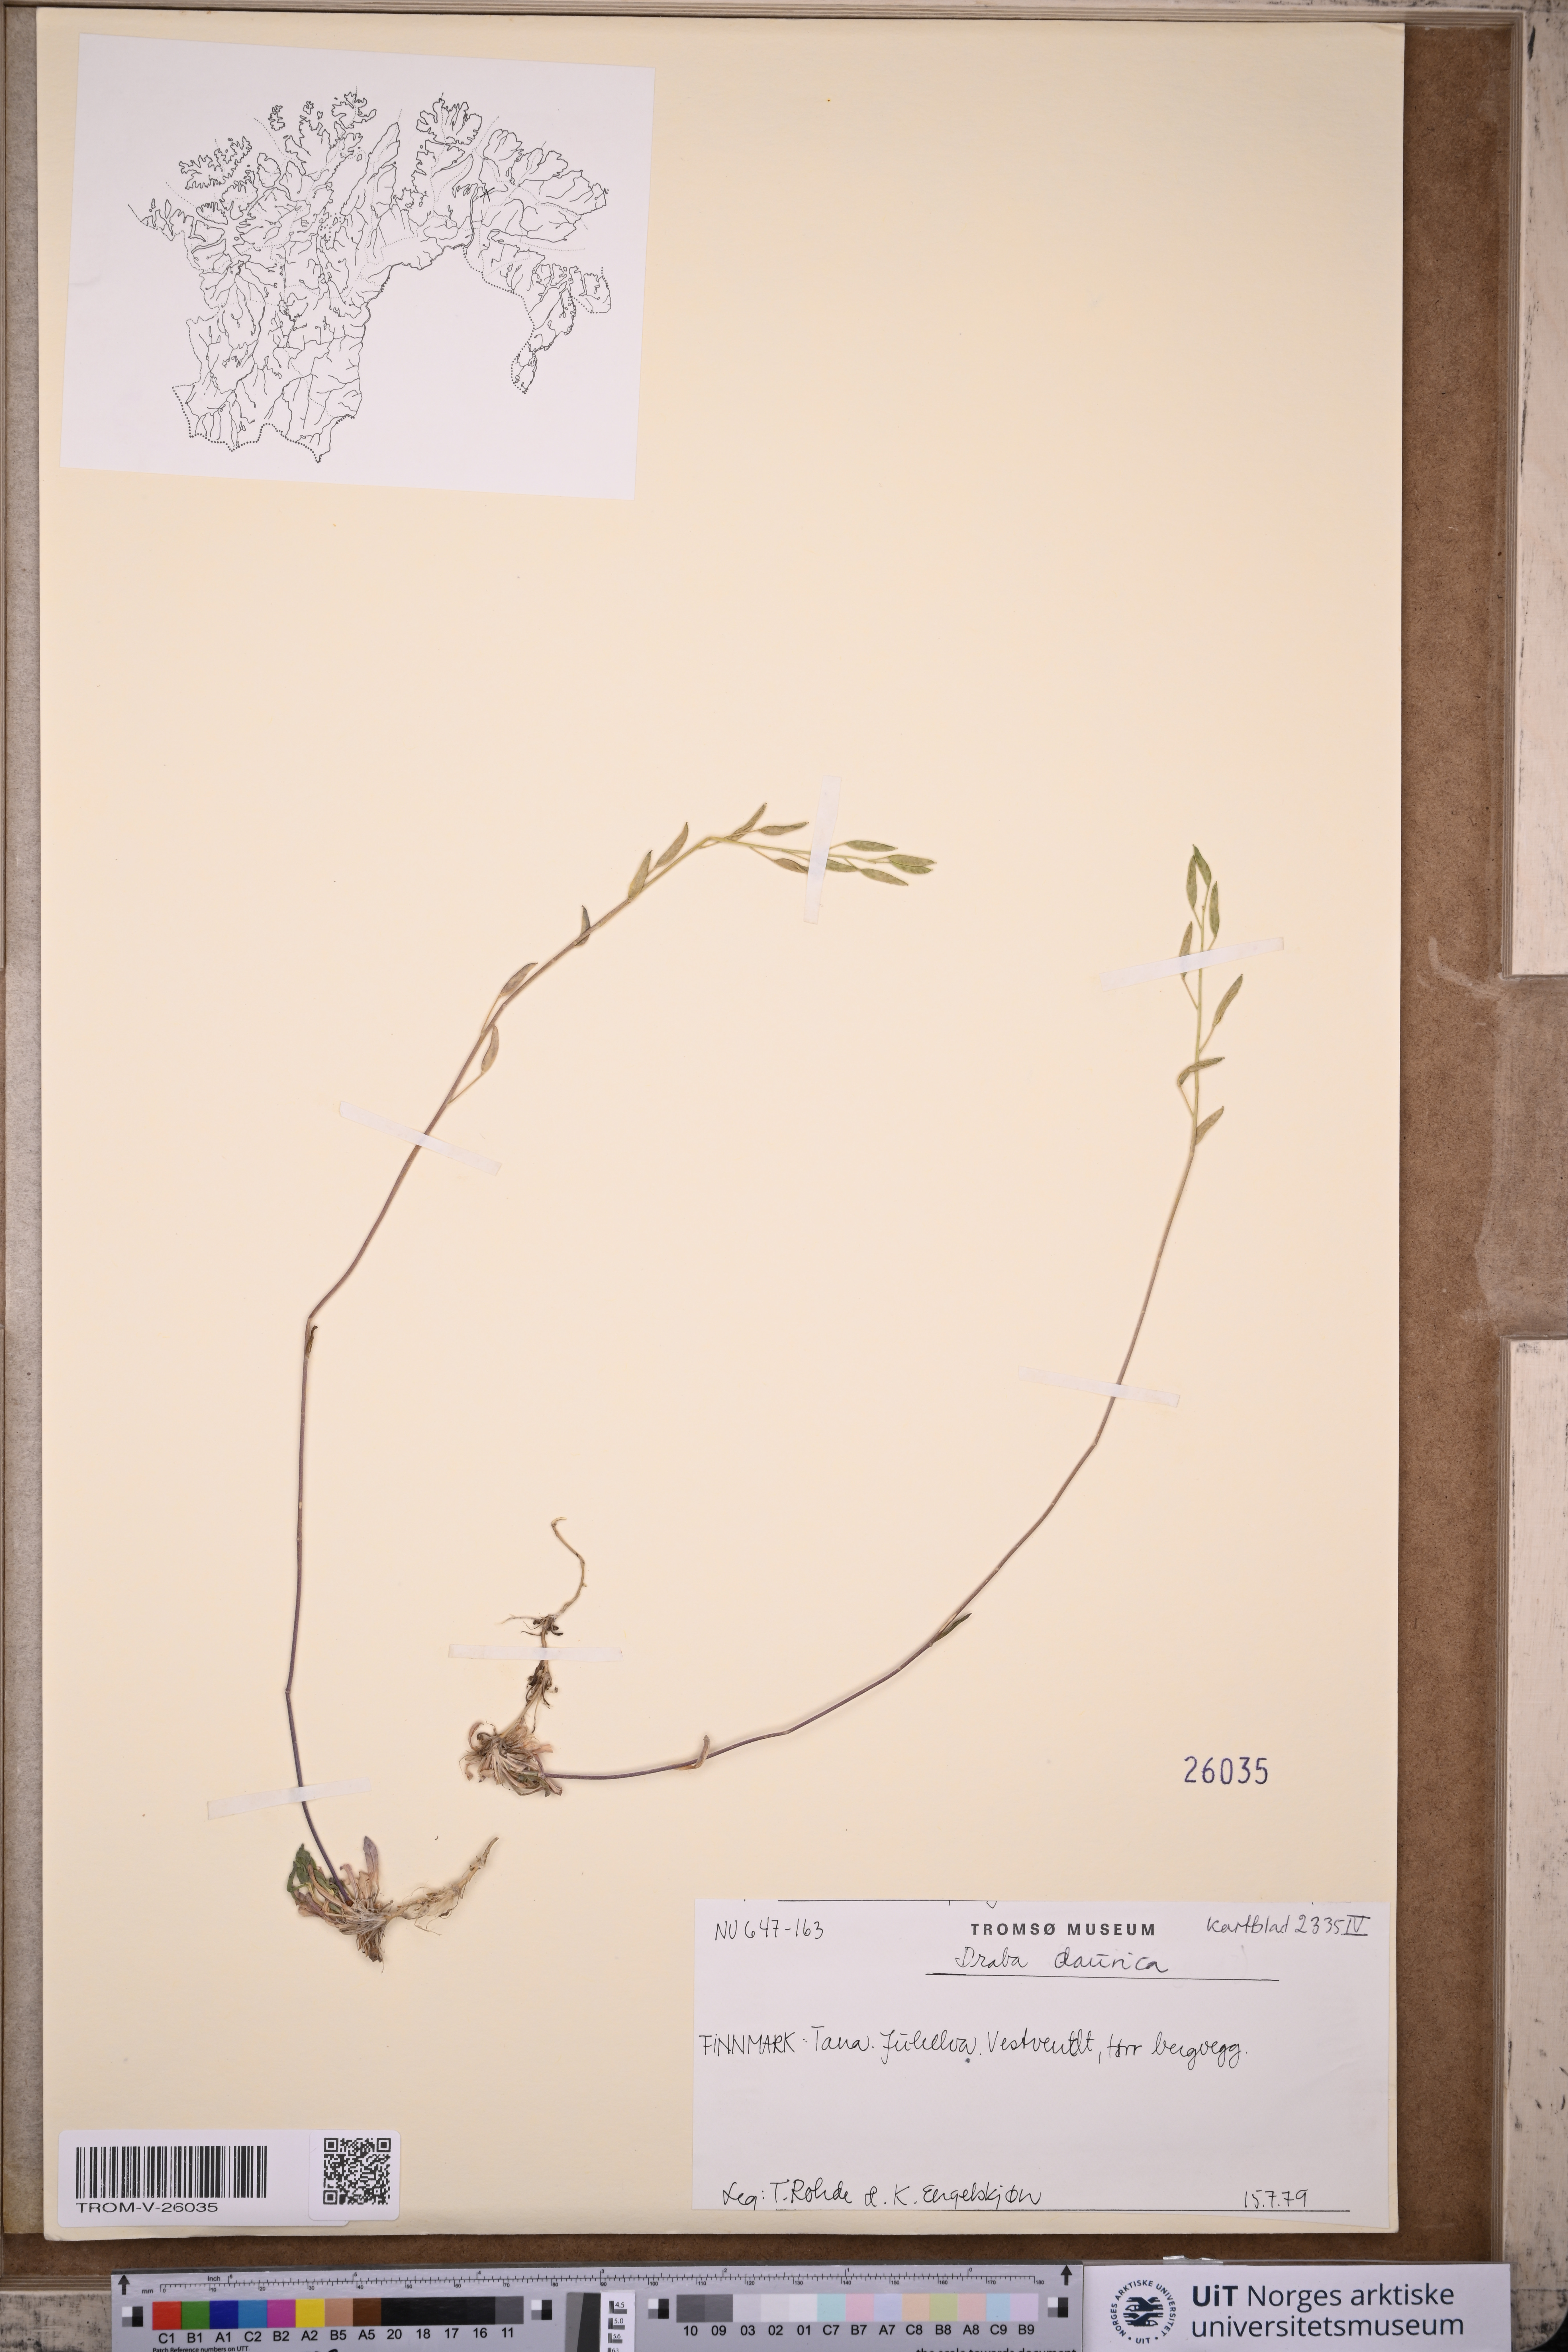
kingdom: Plantae
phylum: Tracheophyta
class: Magnoliopsida
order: Brassicales
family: Brassicaceae
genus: Draba
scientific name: Draba glabella
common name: Glaucous draba
